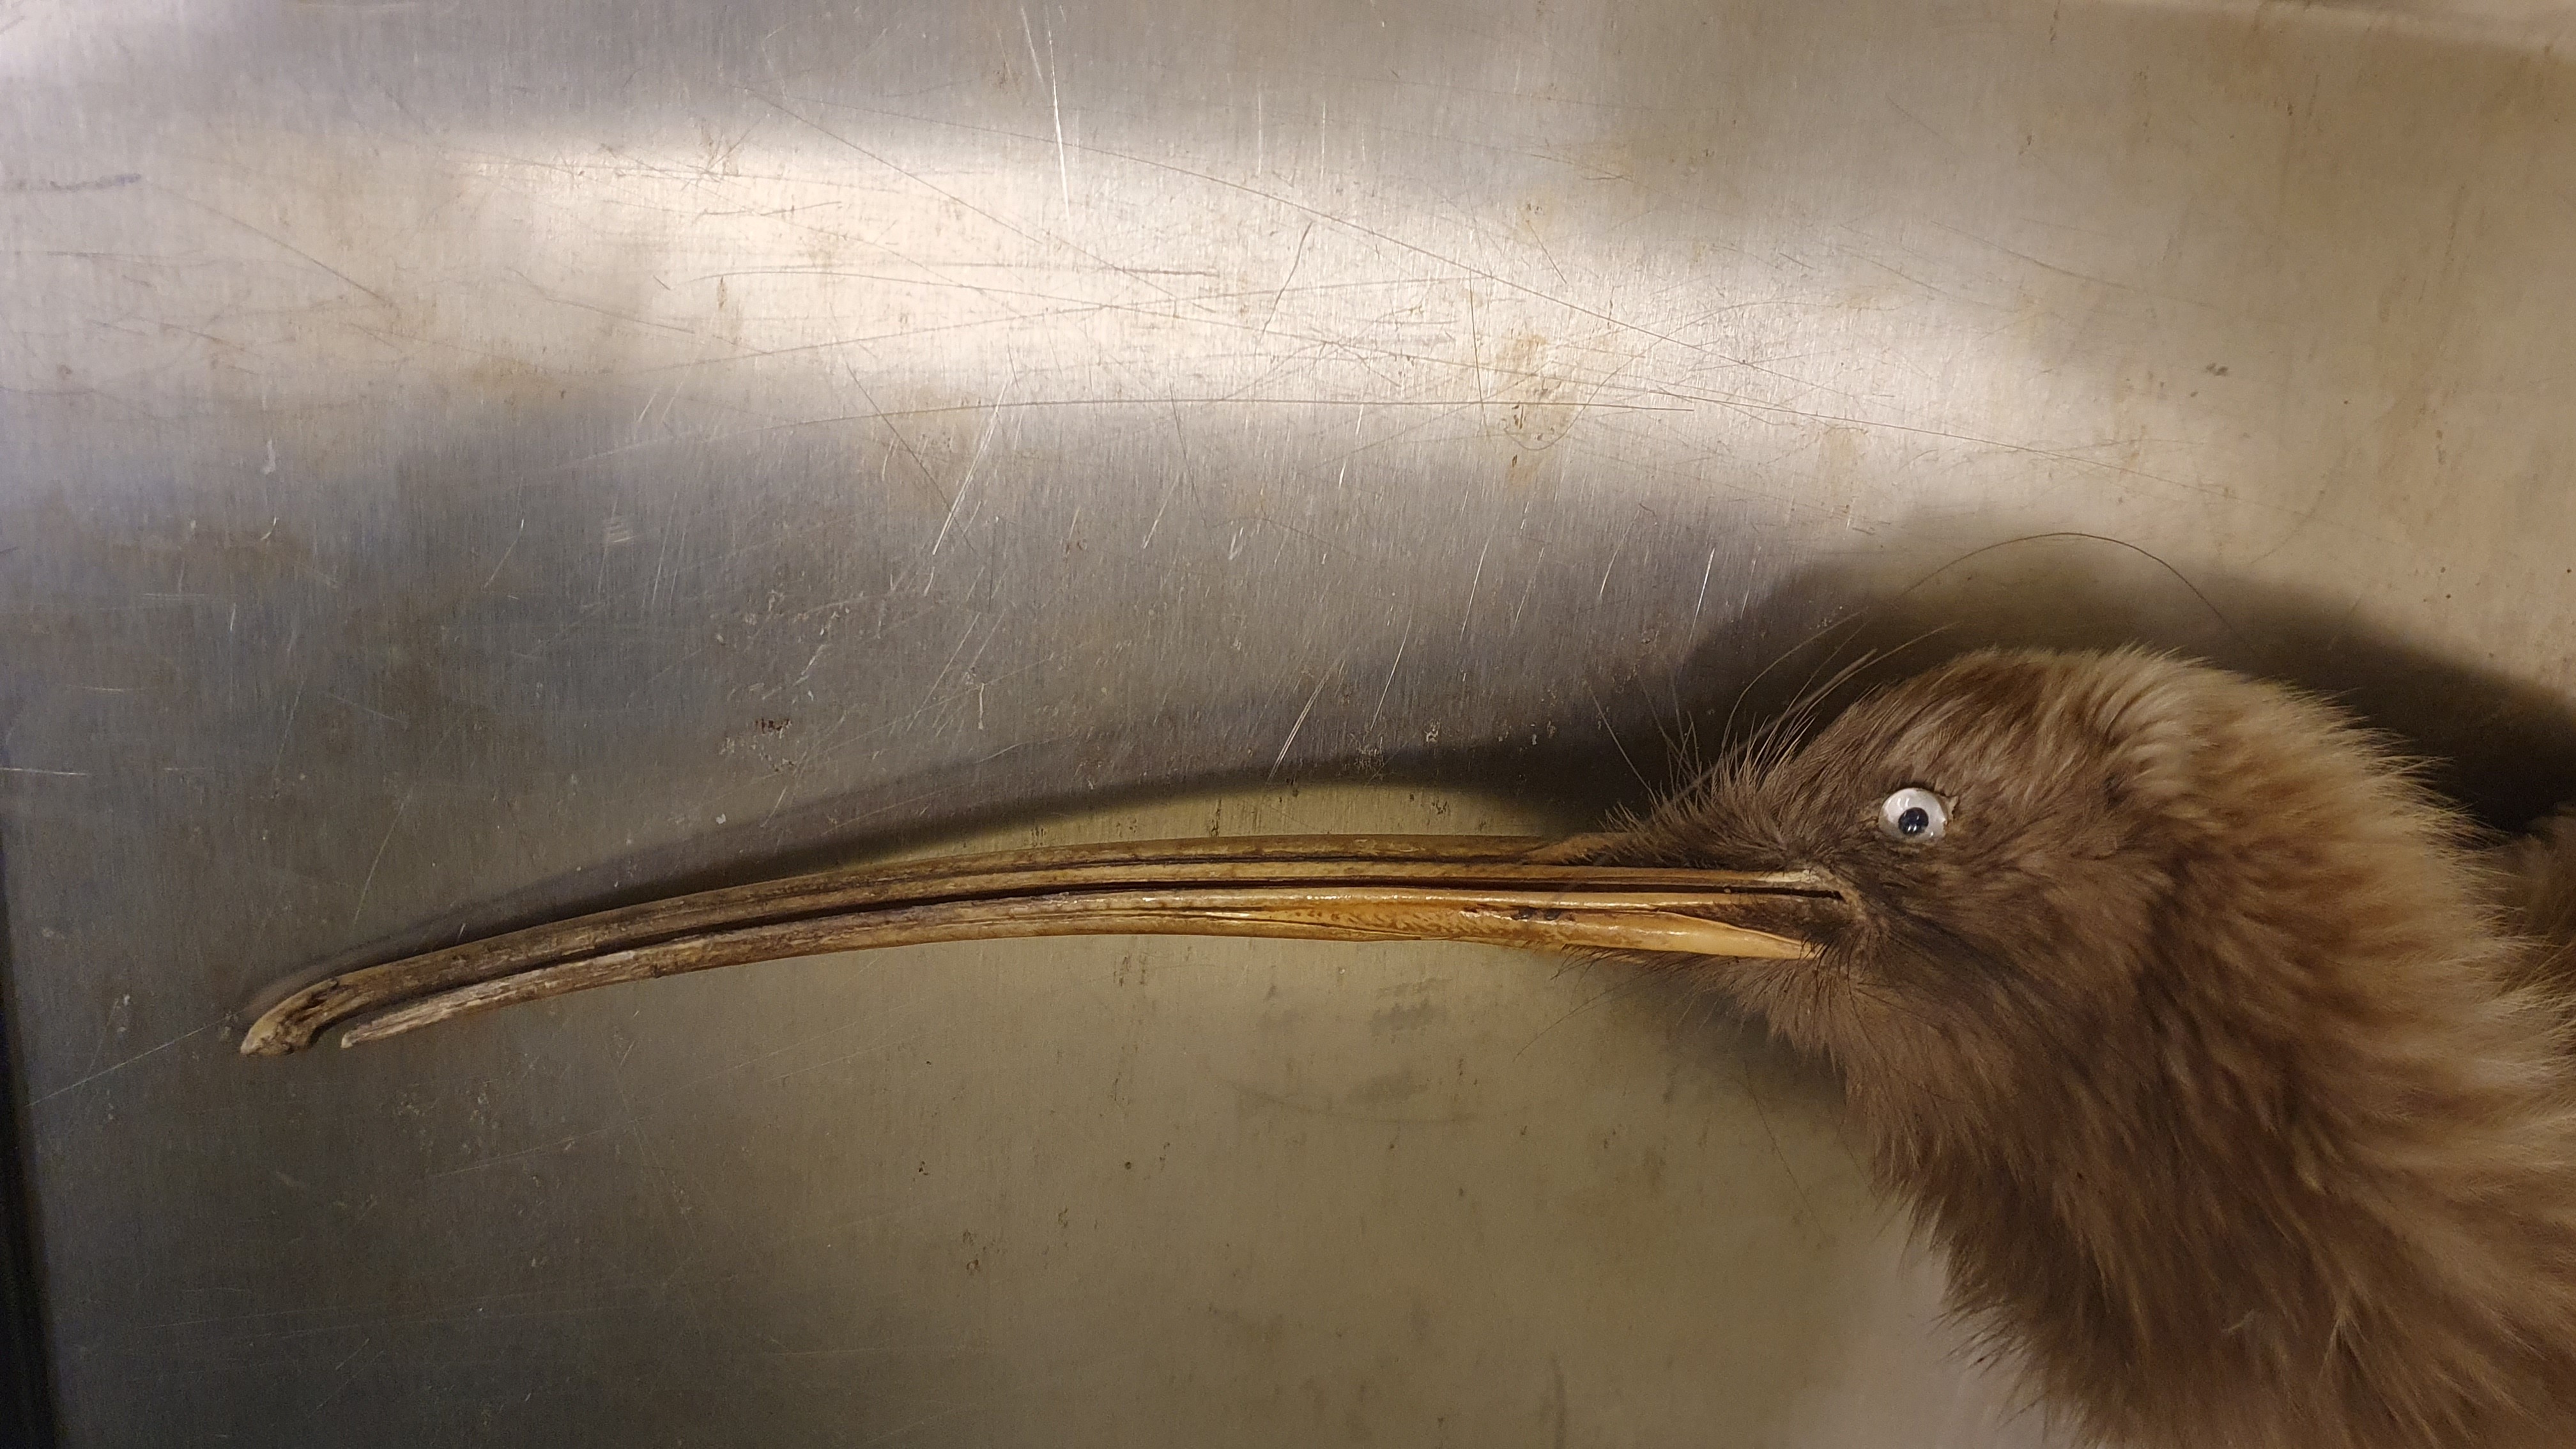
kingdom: Animalia
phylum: Chordata
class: Aves
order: Apterygiformes
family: Apterygidae
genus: Apteryx
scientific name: Apteryx
